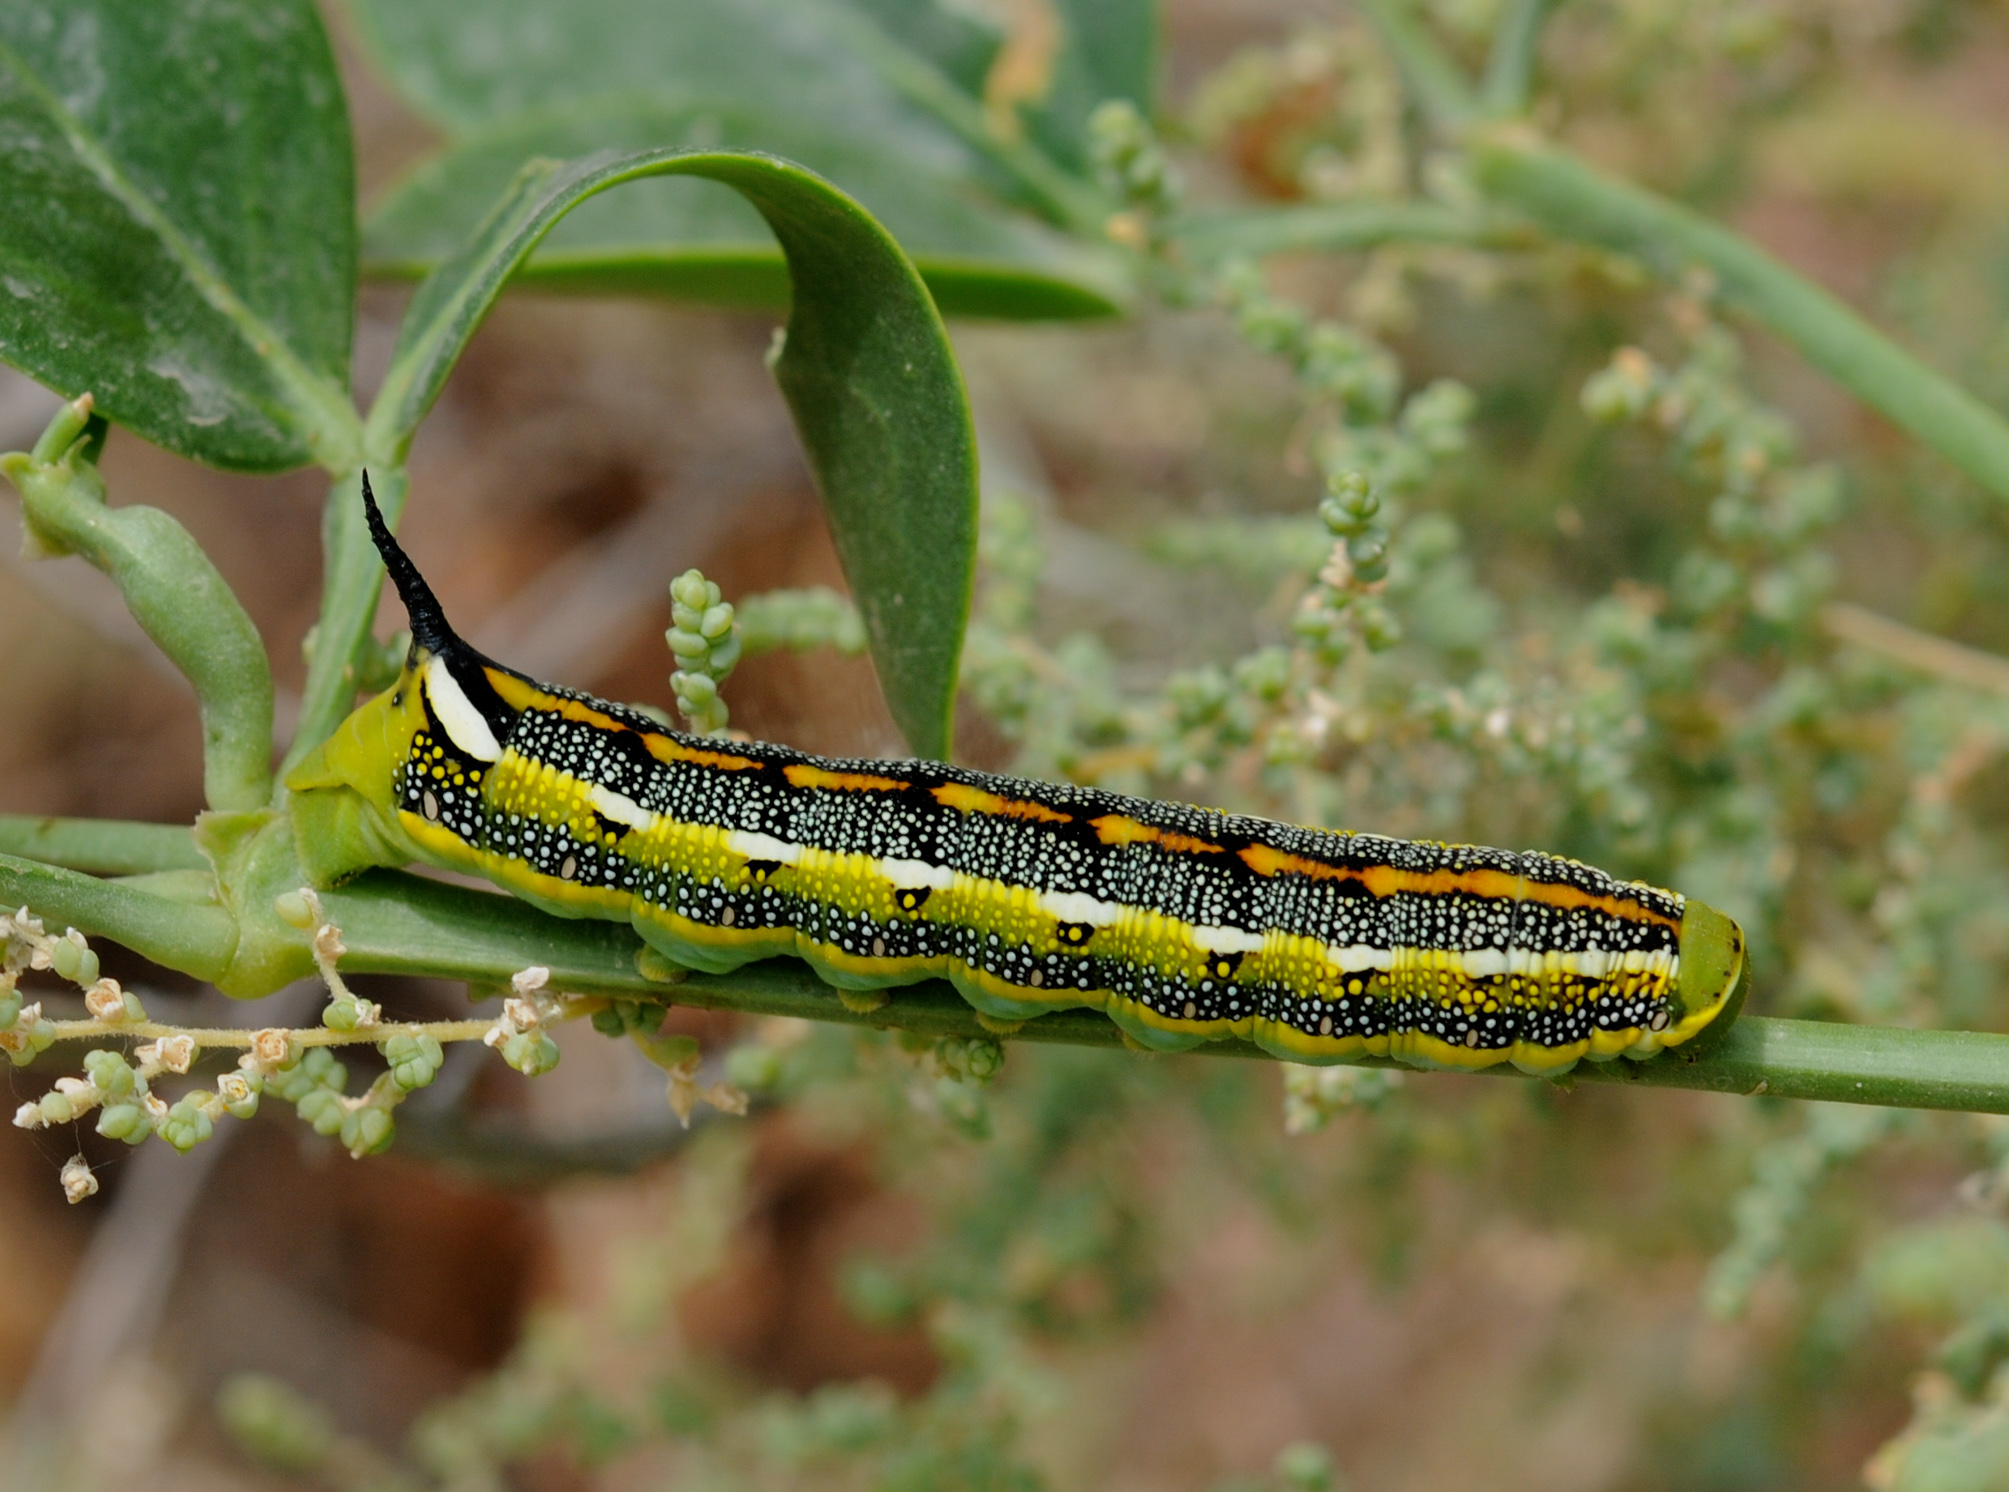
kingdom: Animalia
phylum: Arthropoda
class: Insecta
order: Lepidoptera
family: Sphingidae
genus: Hyles
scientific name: Hyles livornica
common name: Striped hawk-moth
